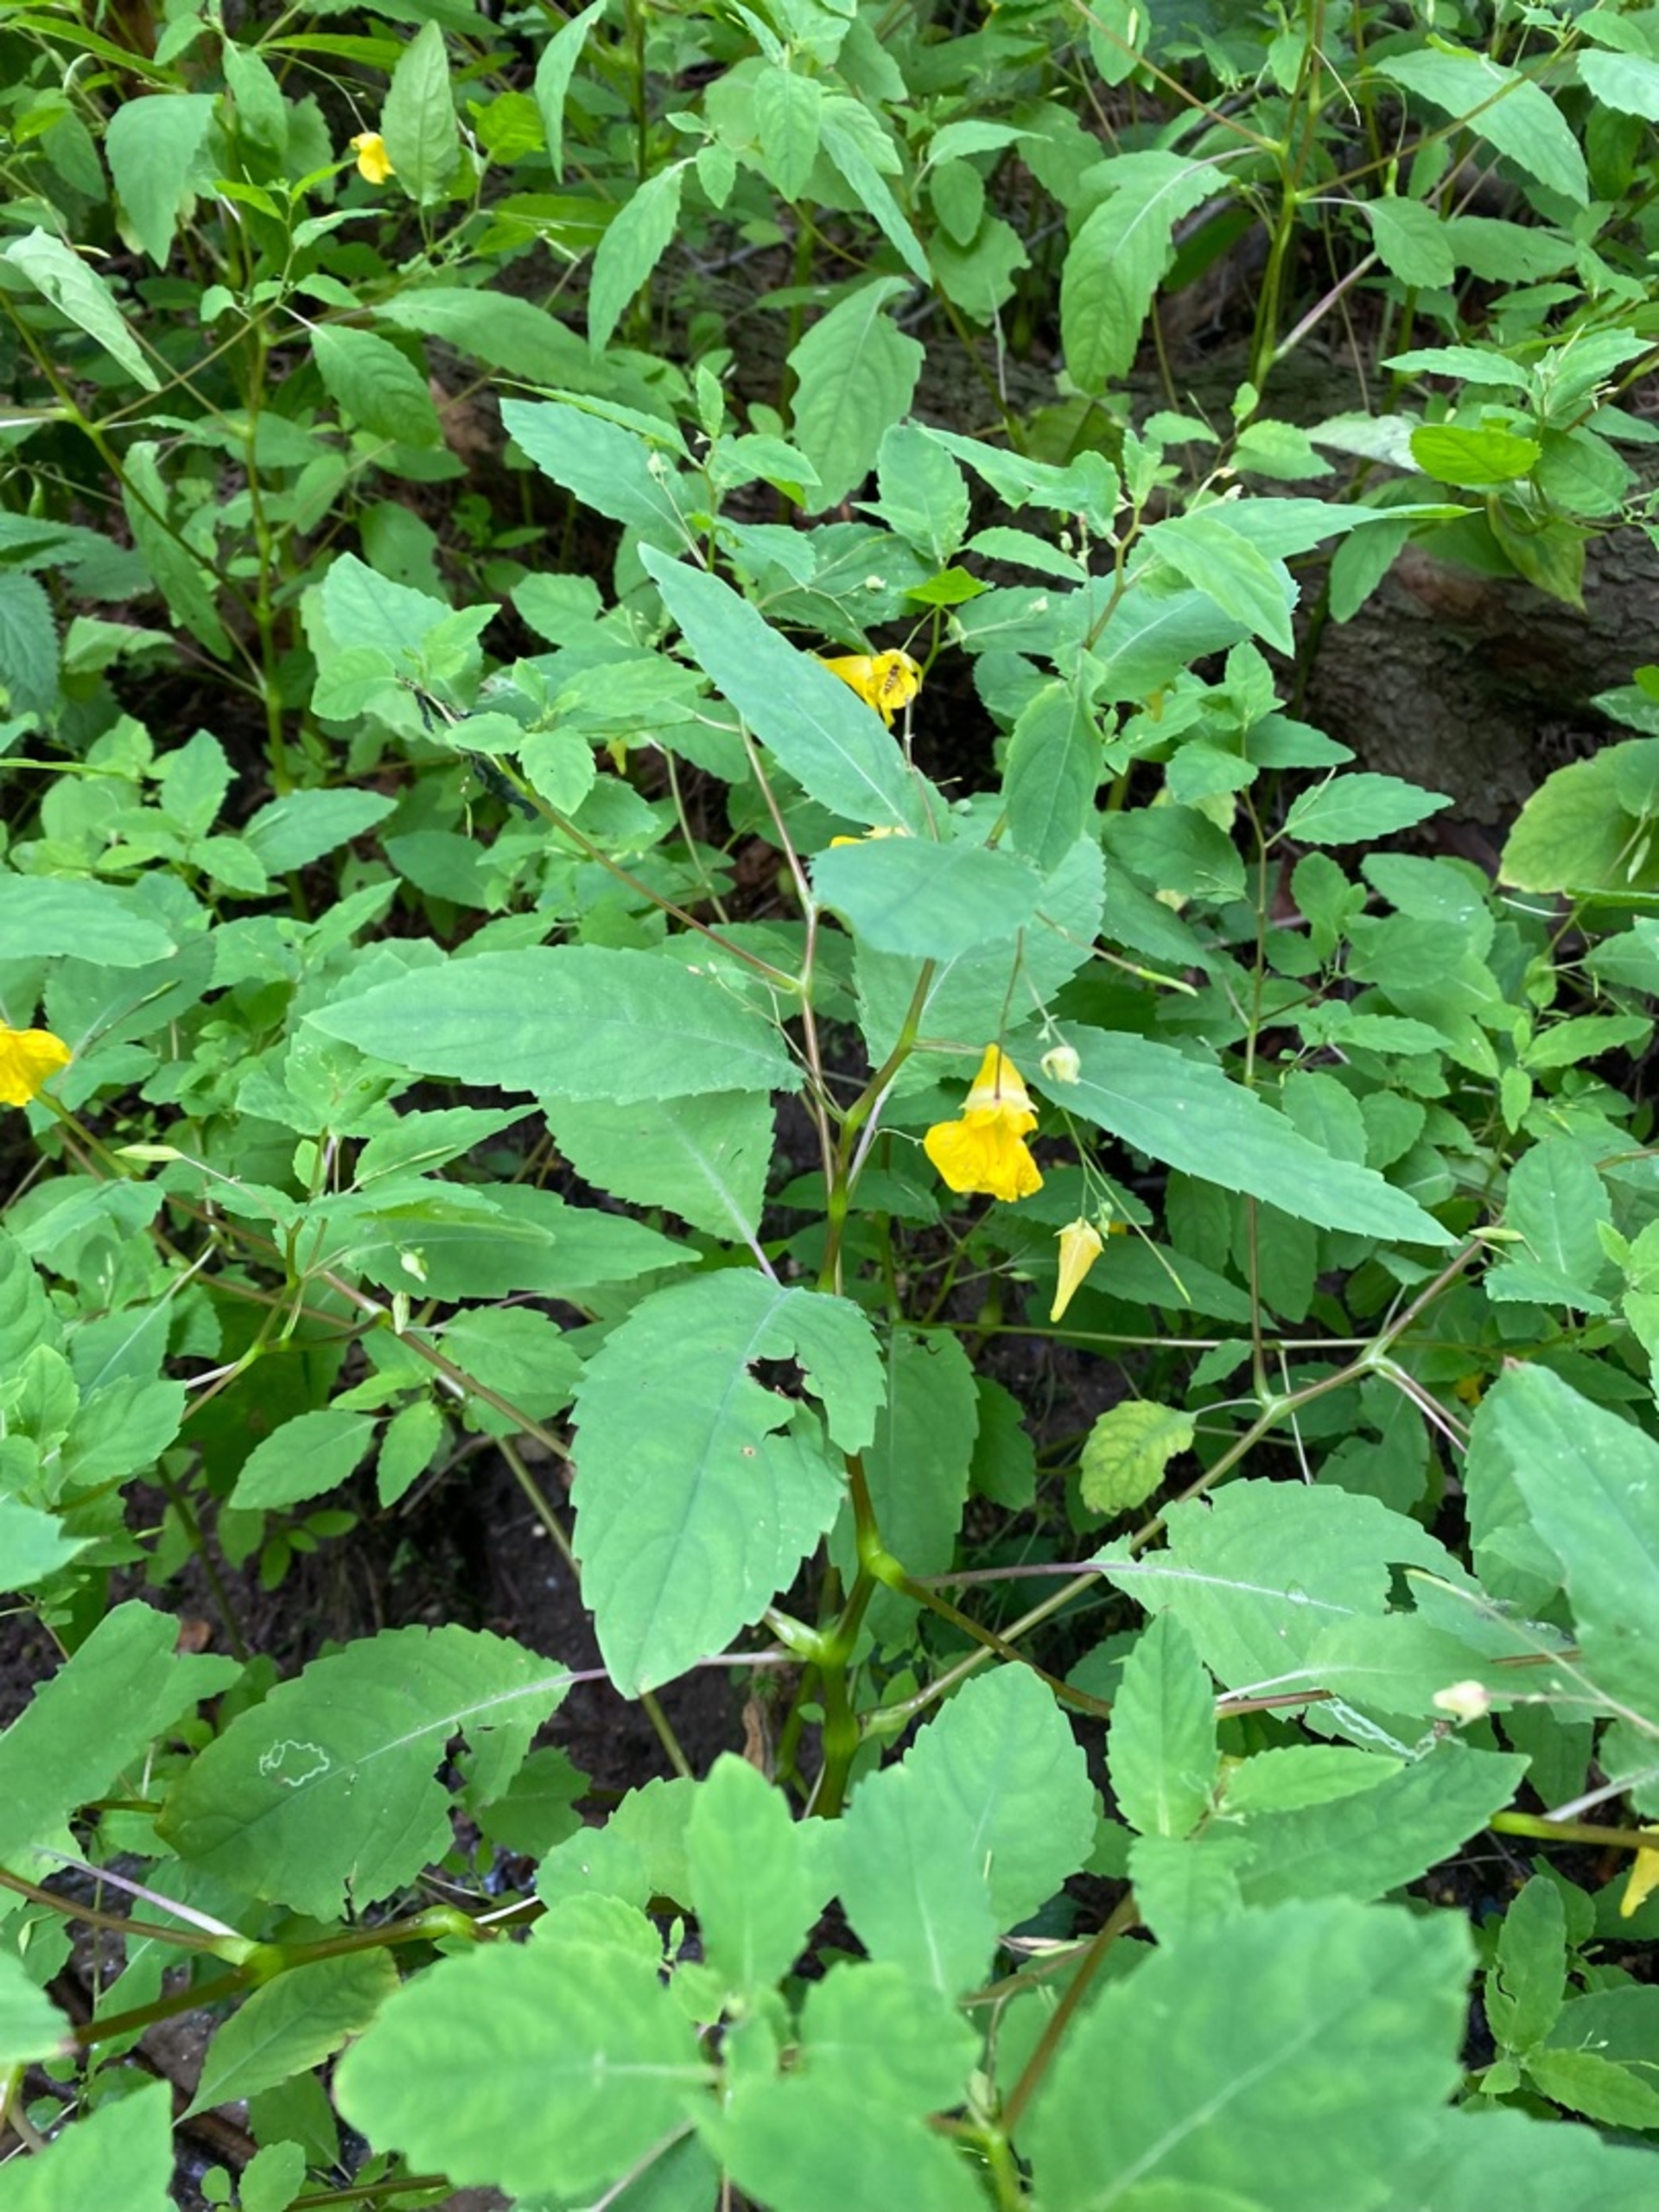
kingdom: Plantae
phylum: Tracheophyta
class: Magnoliopsida
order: Ericales
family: Balsaminaceae
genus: Impatiens
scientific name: Impatiens noli-tangere
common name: Spring-balsamin
